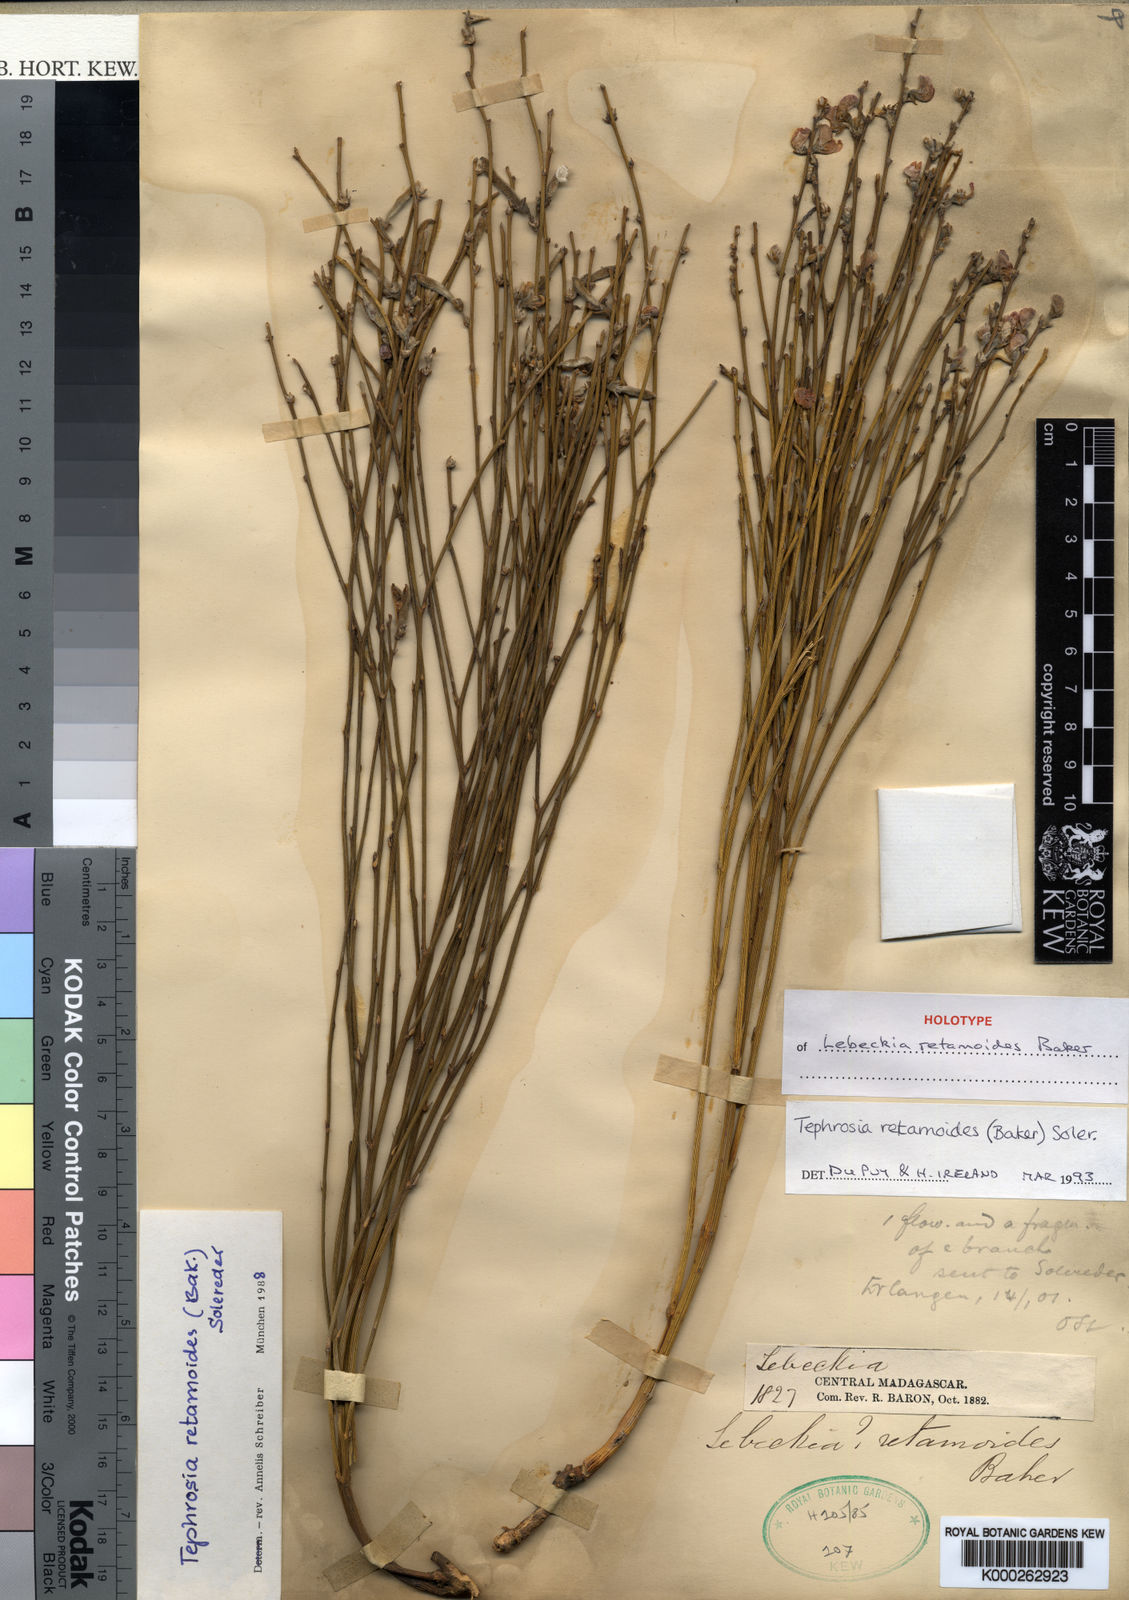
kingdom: Plantae
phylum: Tracheophyta
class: Magnoliopsida
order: Fabales
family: Fabaceae
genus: Tephrosia
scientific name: Tephrosia retamoides
